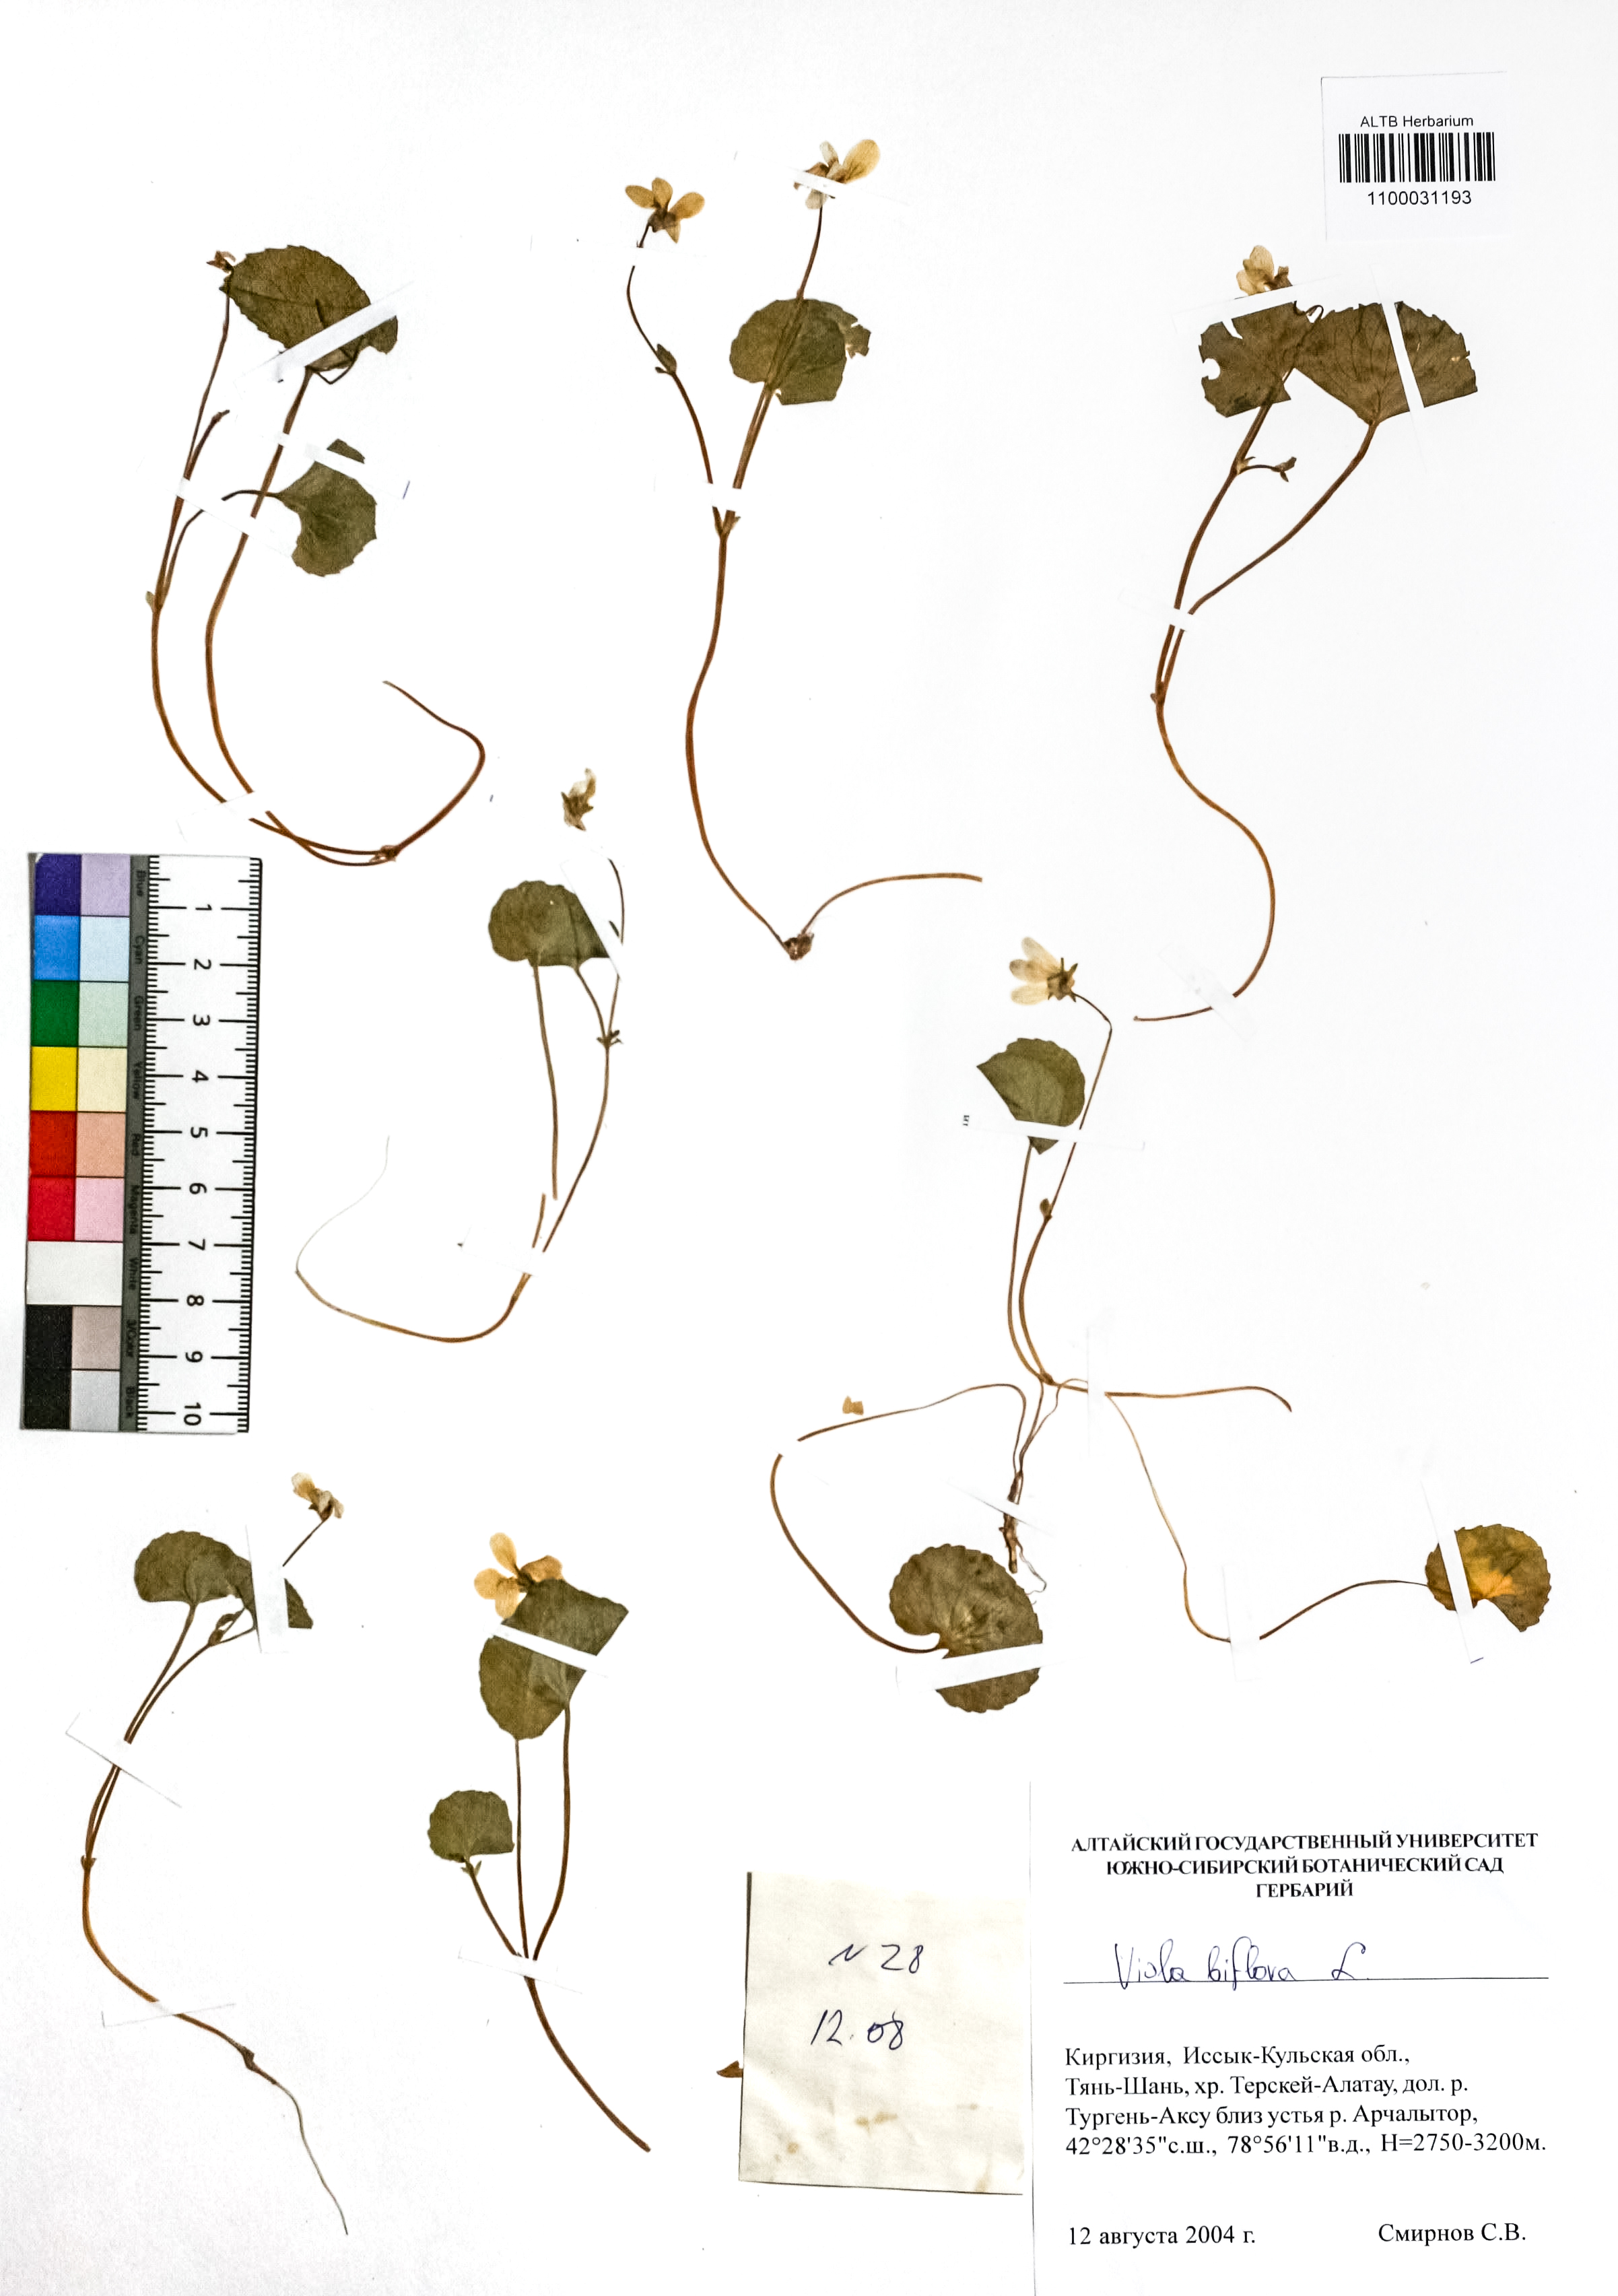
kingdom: Plantae
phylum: Tracheophyta
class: Magnoliopsida
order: Malpighiales
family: Violaceae
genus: Viola
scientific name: Viola biflora
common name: Alpine yellow violet
